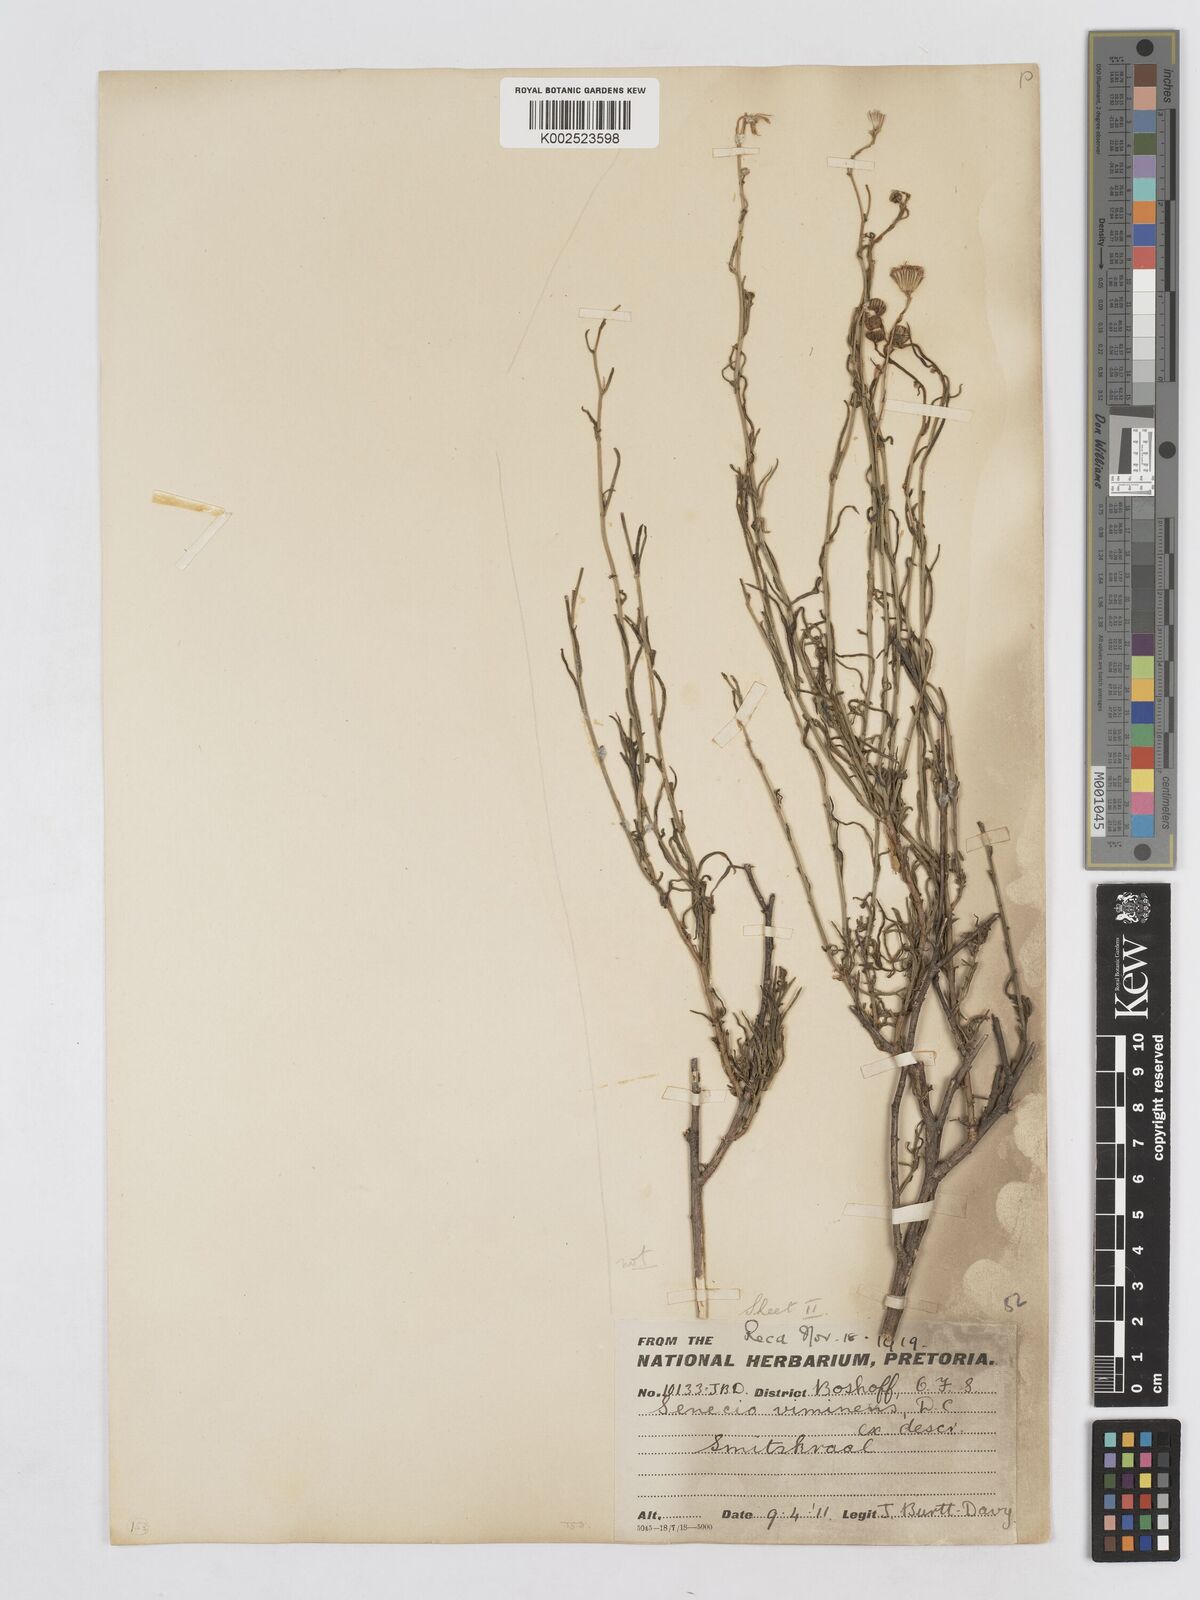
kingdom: Plantae
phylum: Tracheophyta
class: Magnoliopsida
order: Asterales
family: Asteraceae
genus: Senecio
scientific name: Senecio inaequidens
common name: Narrow-leaved ragwort
